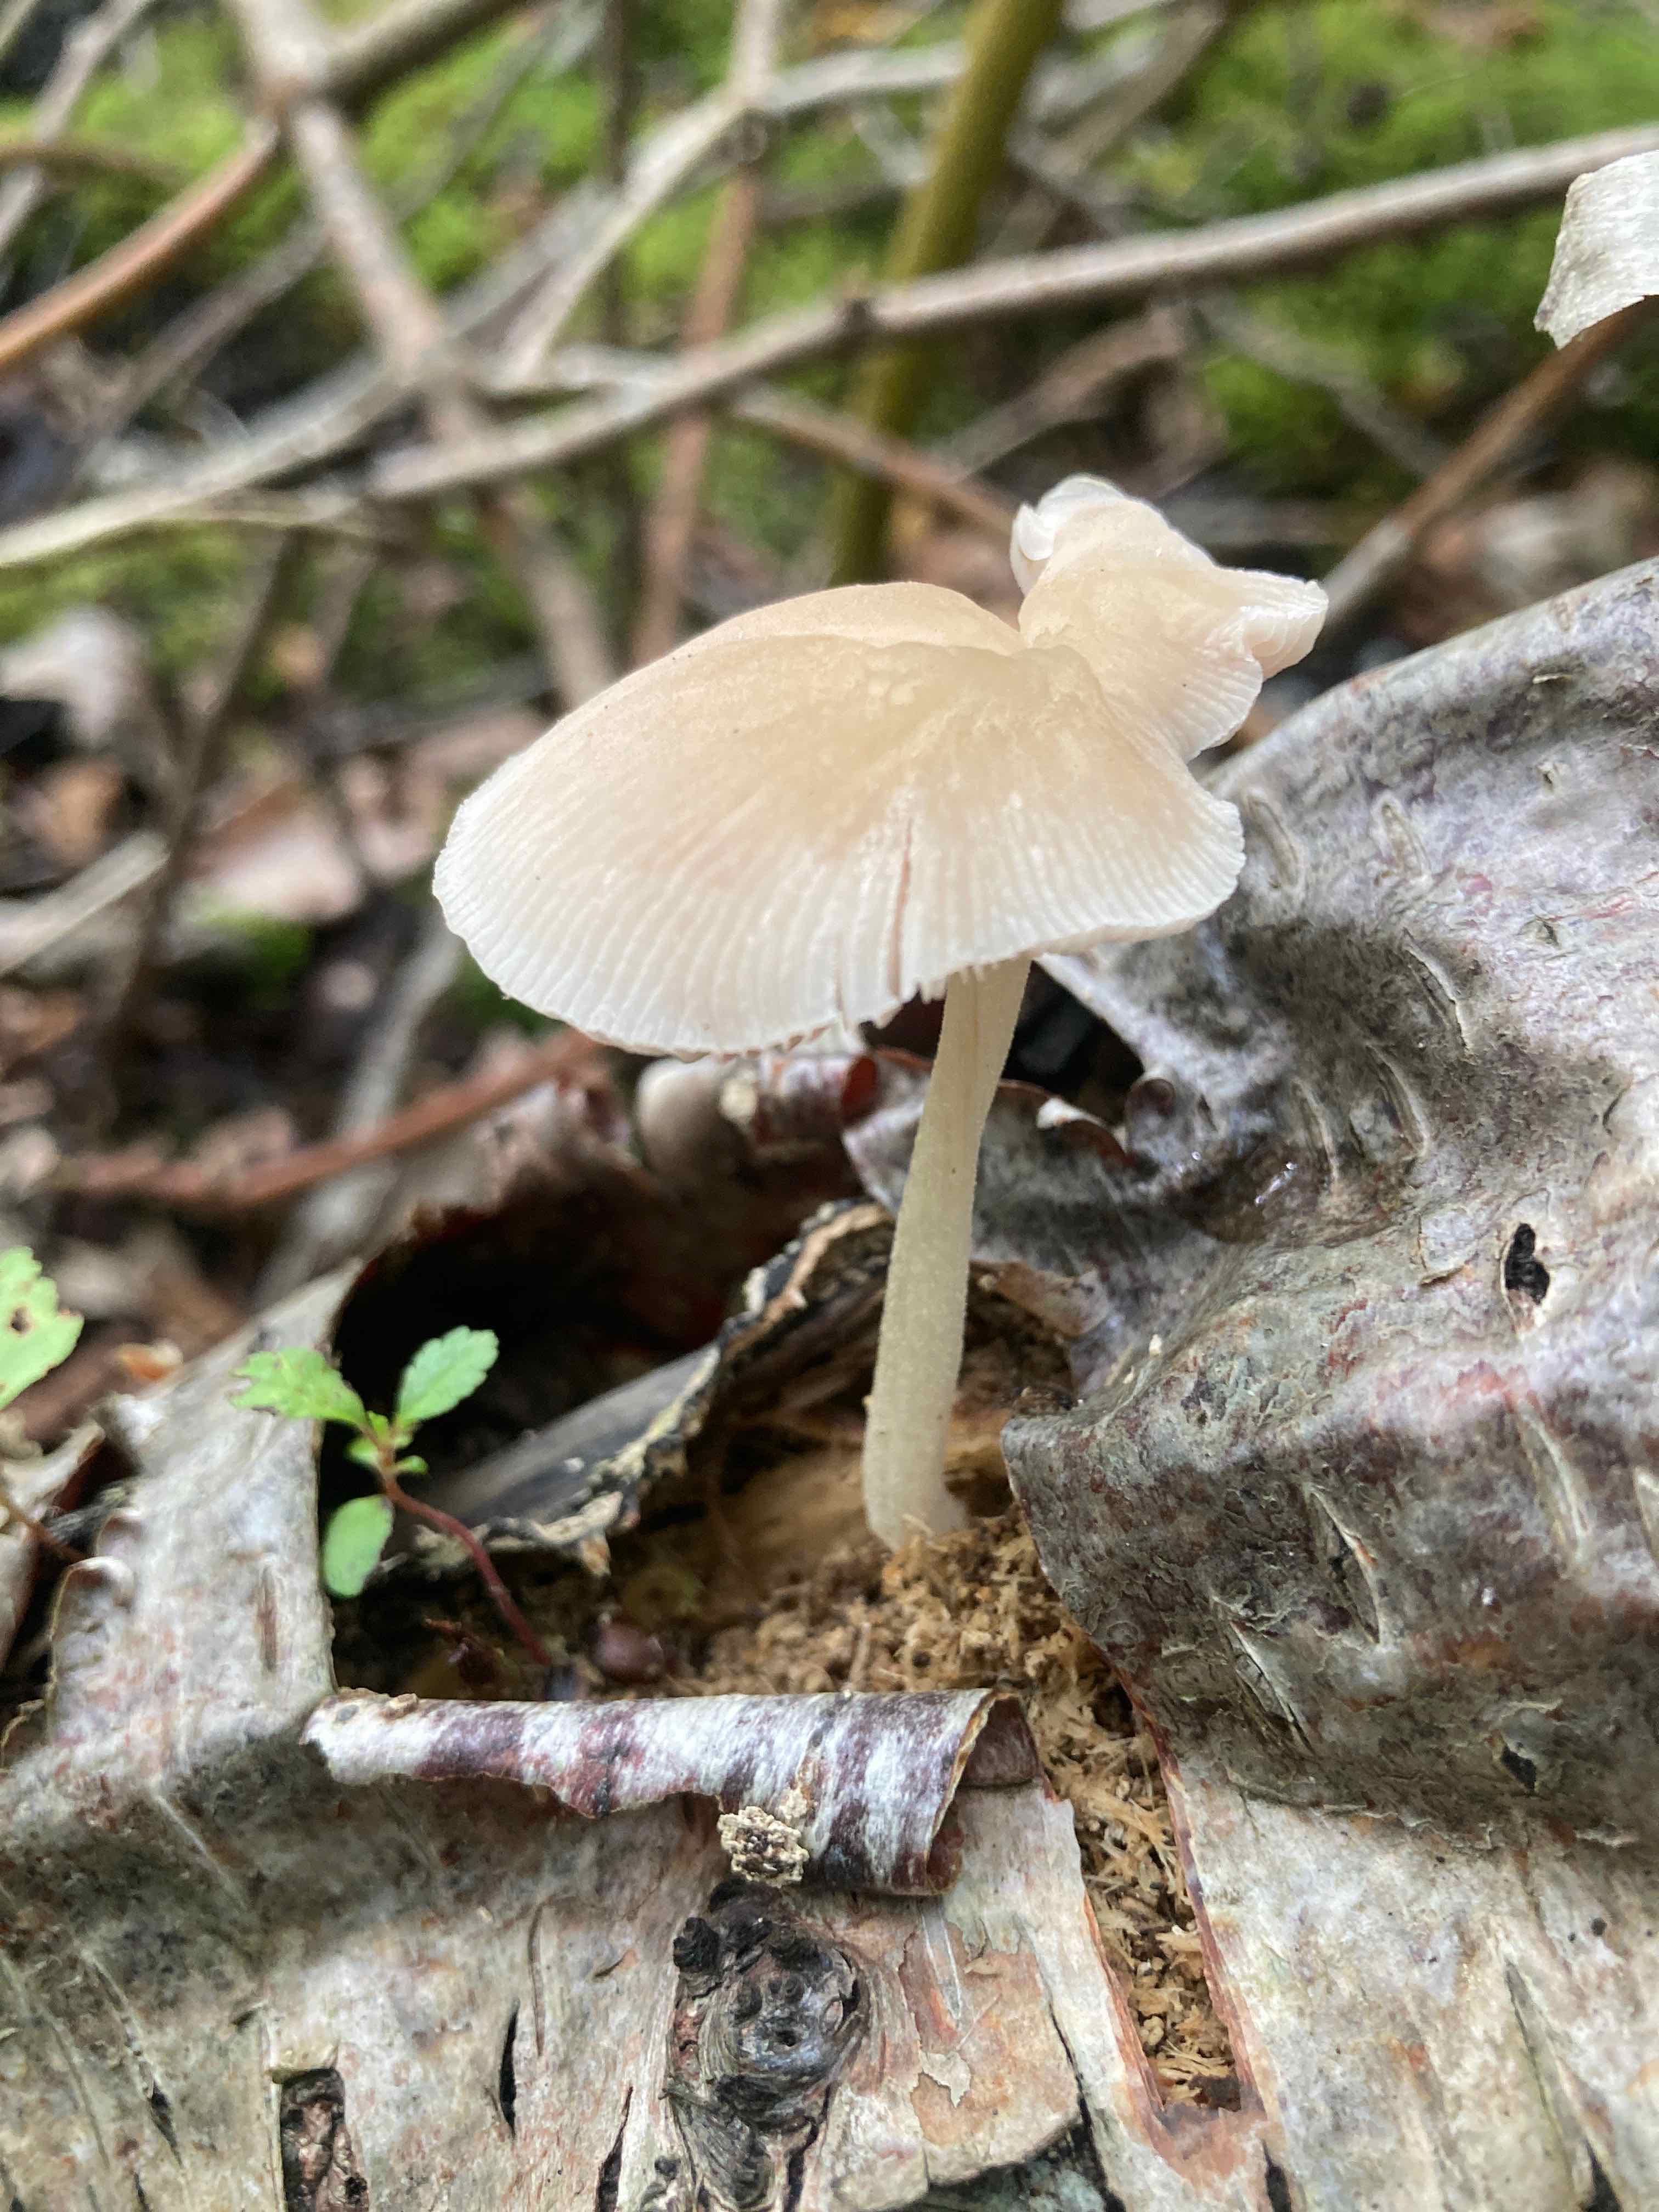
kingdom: Fungi
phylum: Basidiomycota
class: Agaricomycetes
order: Agaricales
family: Pluteaceae
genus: Pluteus
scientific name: Pluteus longistriatus
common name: hjul-skærmhat
